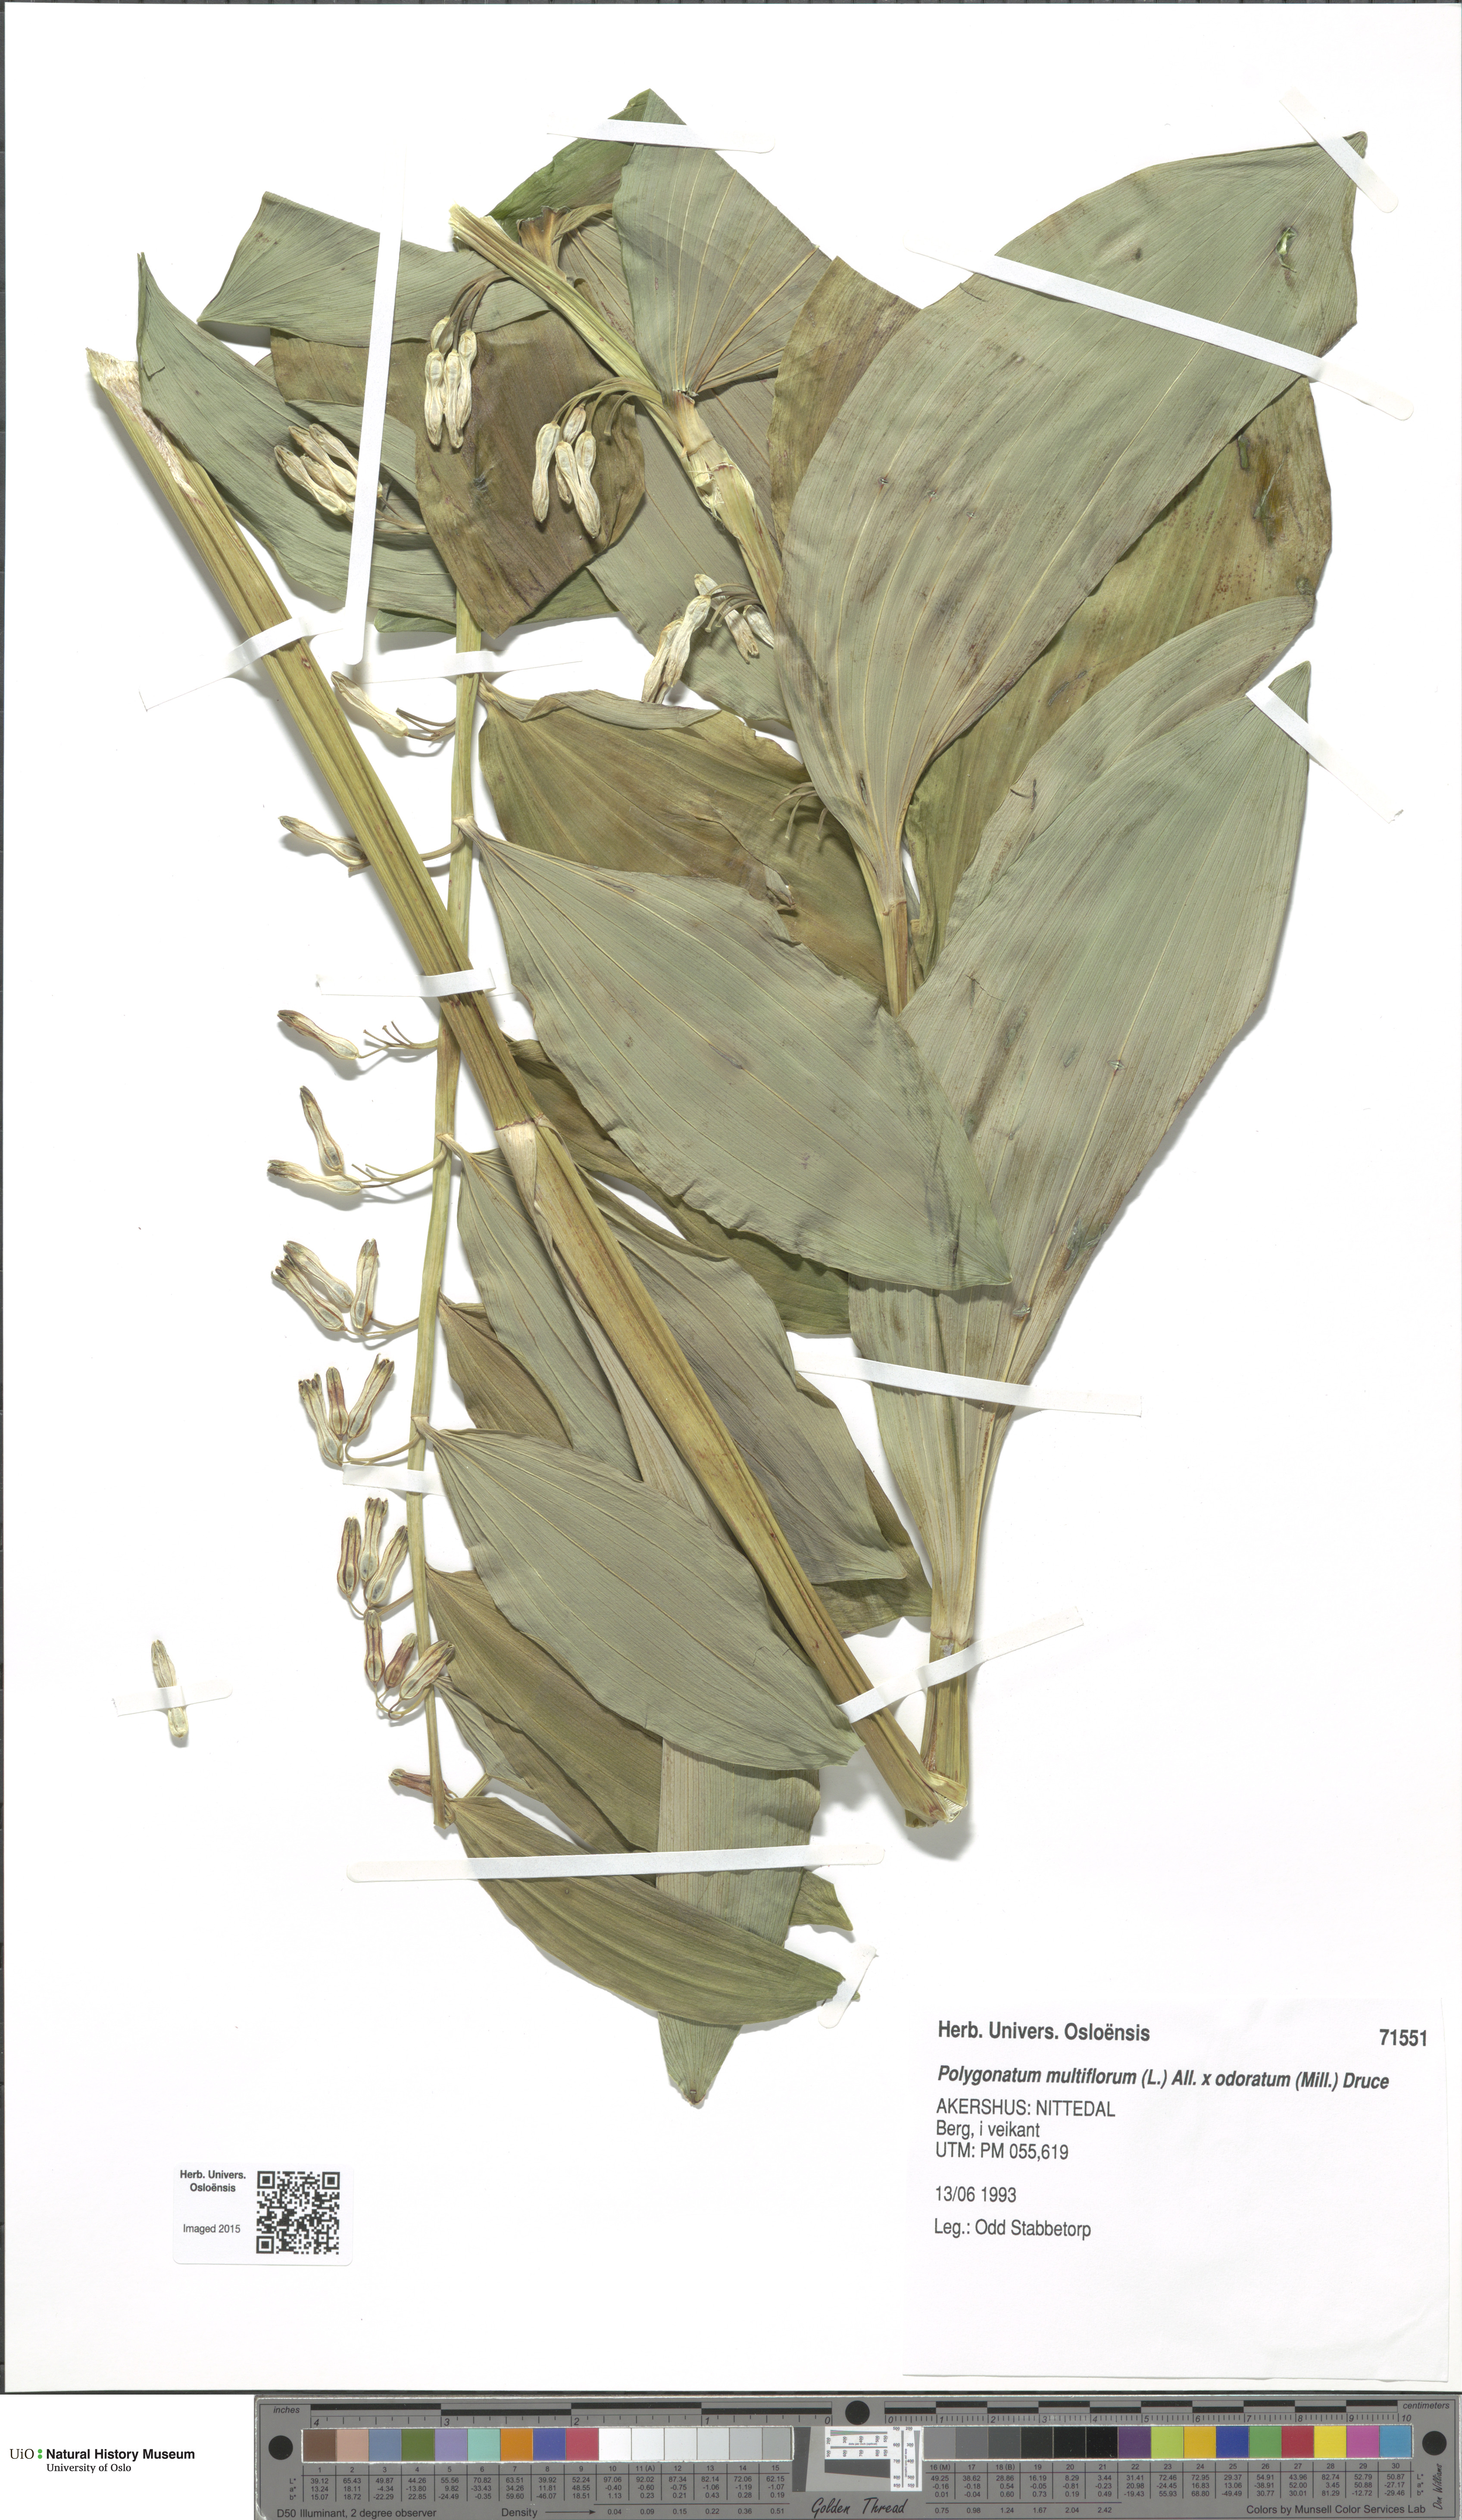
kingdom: Plantae
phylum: Tracheophyta
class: Liliopsida
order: Asparagales
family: Asparagaceae
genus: Polygonatum
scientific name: Polygonatum
